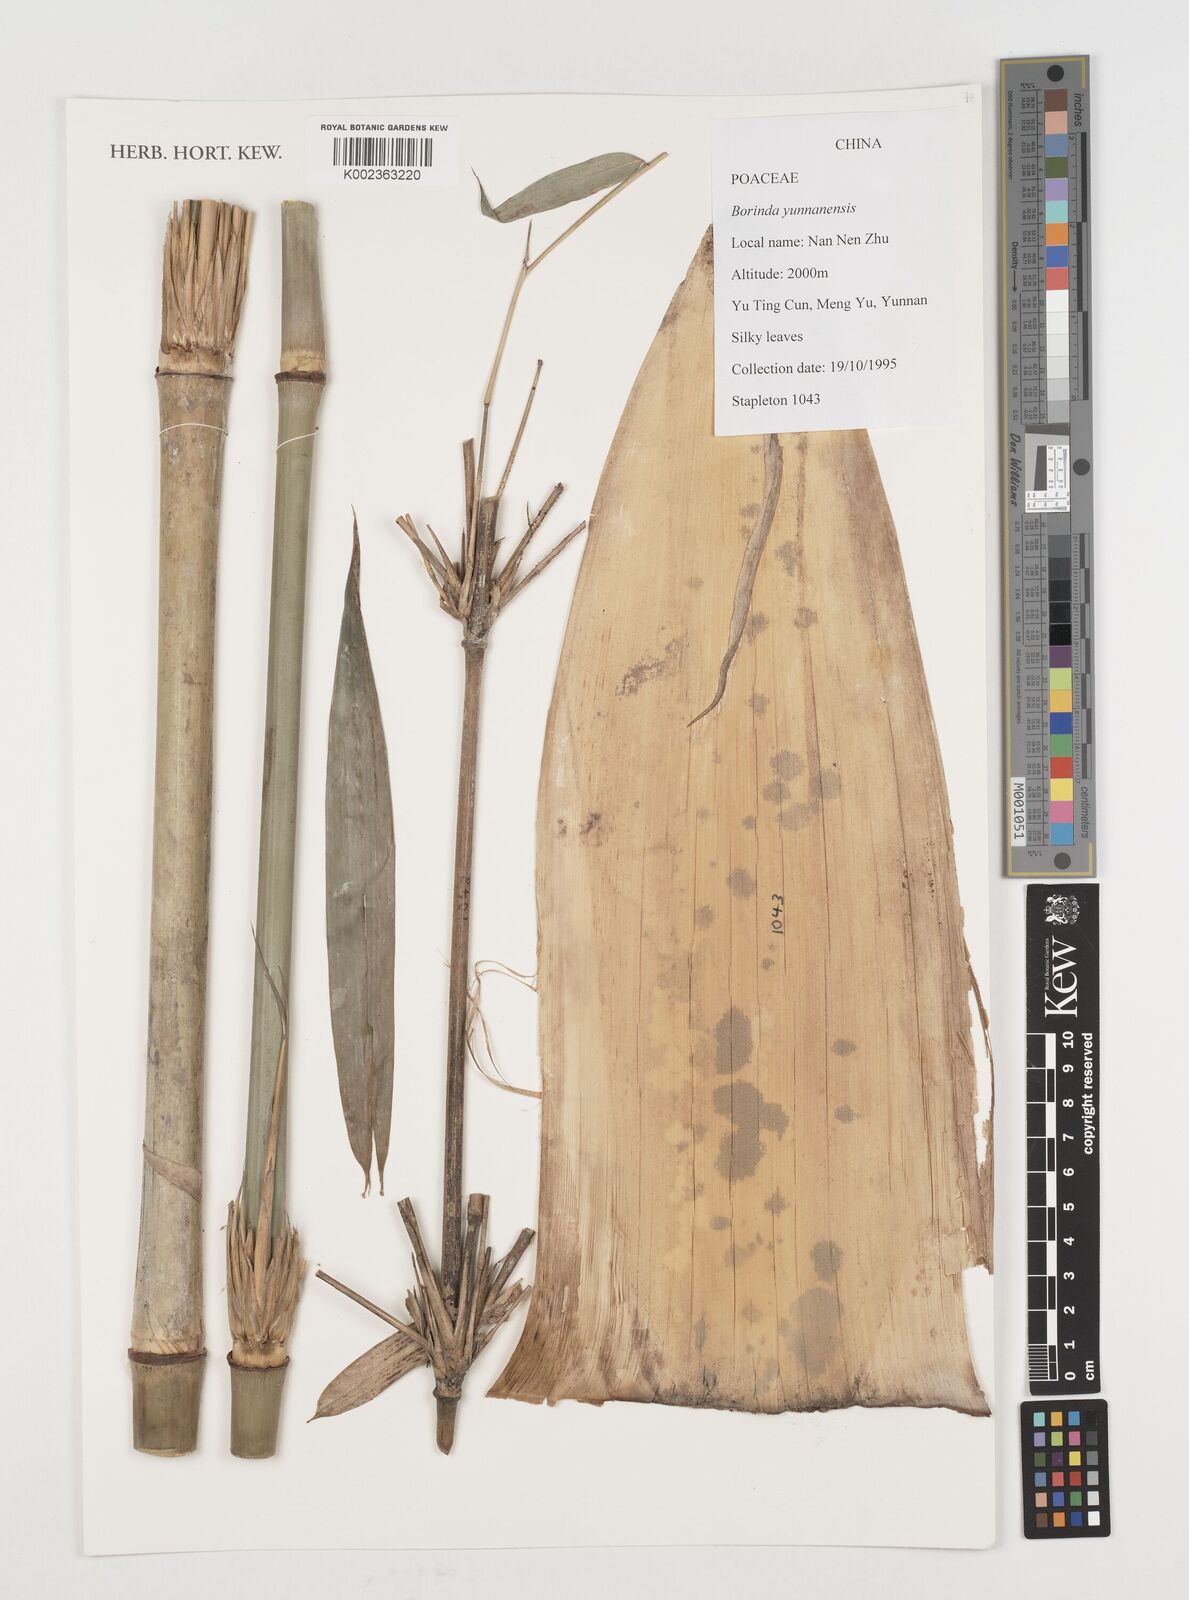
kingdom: Plantae
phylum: Tracheophyta
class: Liliopsida
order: Poales
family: Poaceae
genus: Fargesia
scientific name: Fargesia yunnanensis
